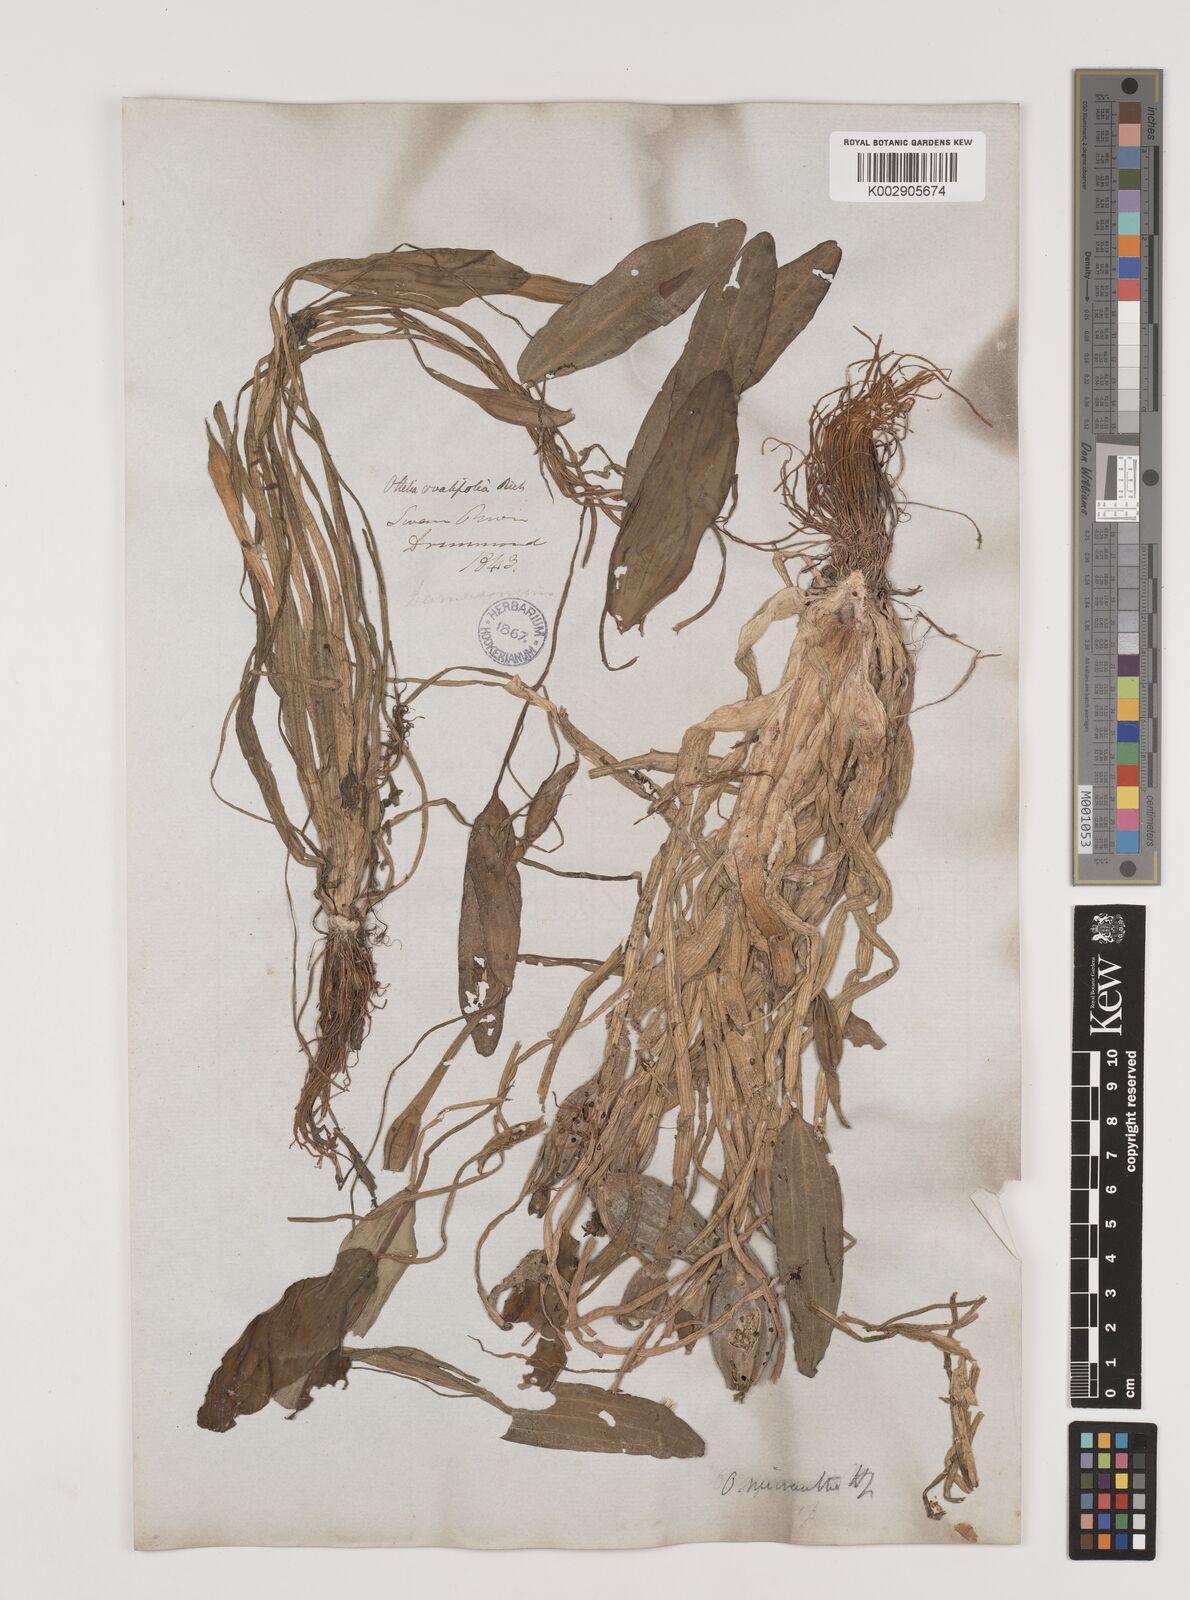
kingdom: Plantae
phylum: Tracheophyta
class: Liliopsida
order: Alismatales
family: Hydrocharitaceae
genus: Ottelia
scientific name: Ottelia ovalifolia
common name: Swamp-lily
